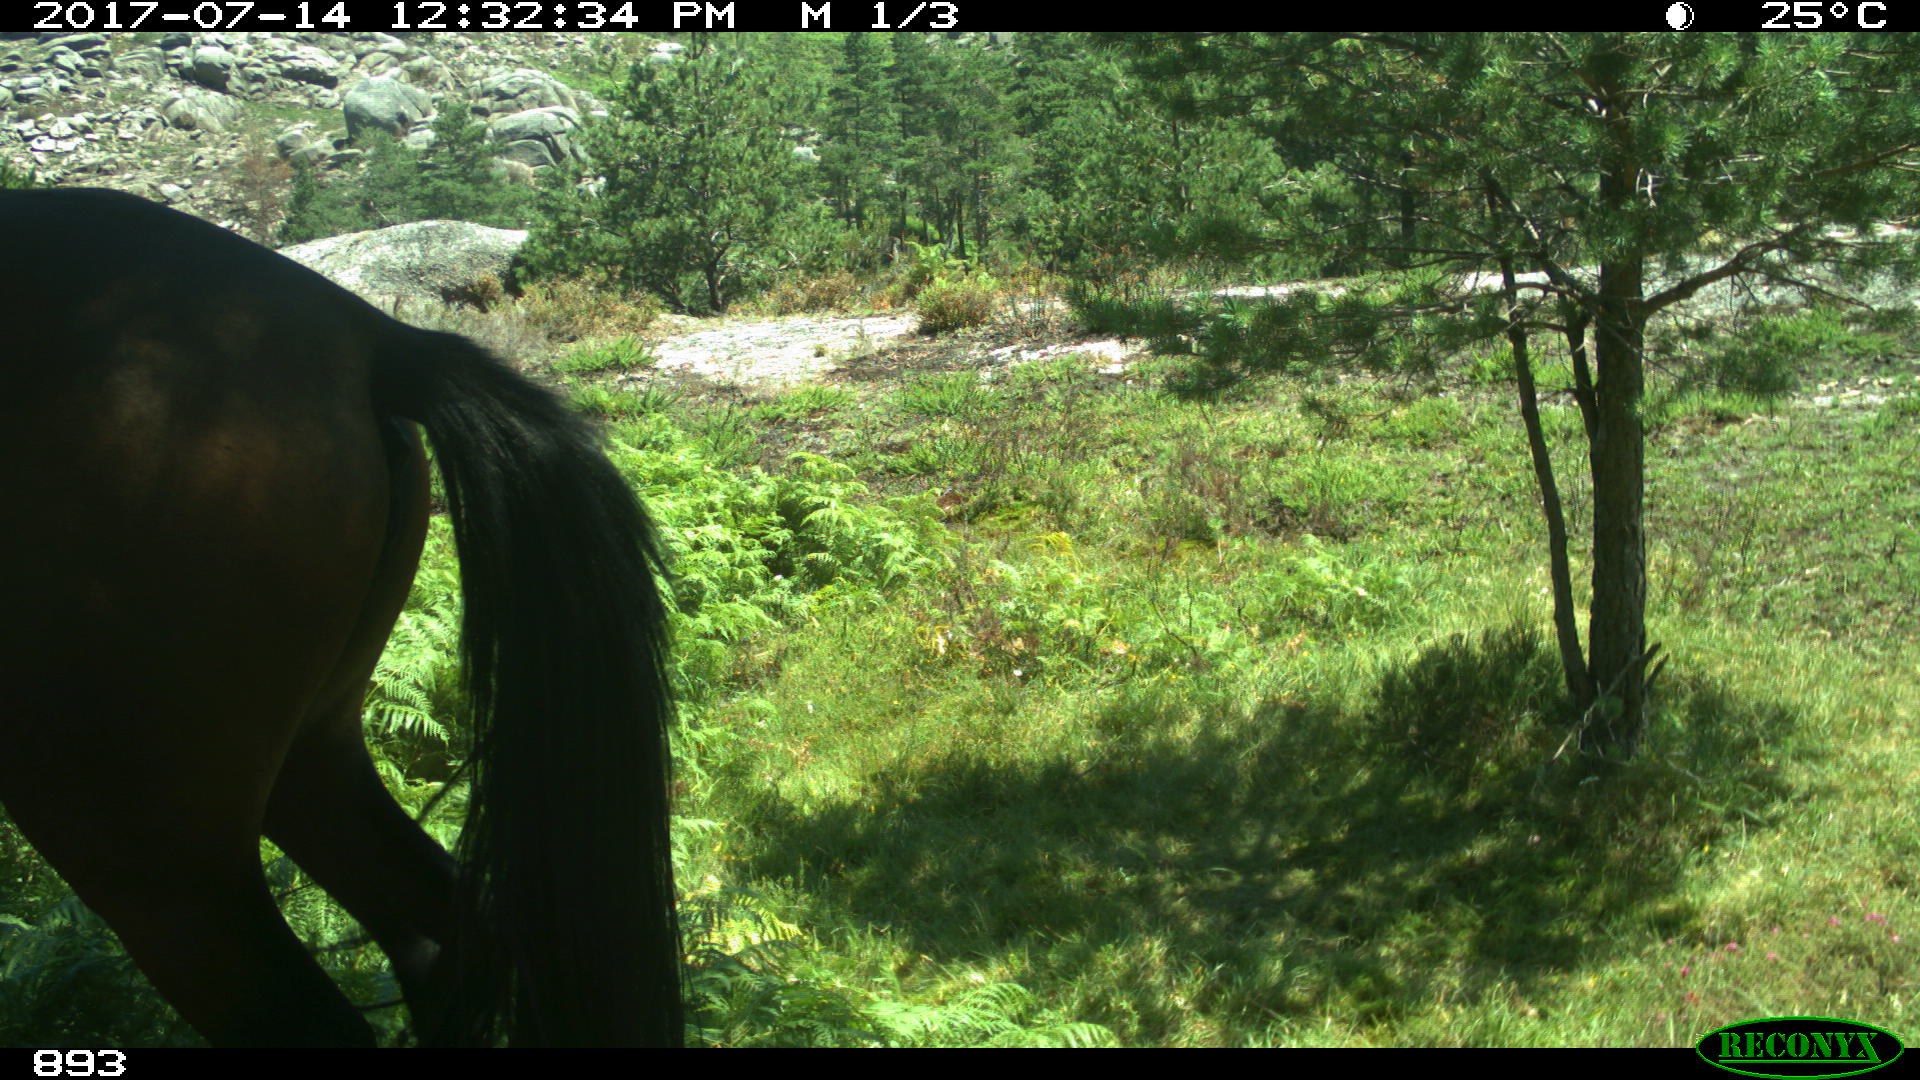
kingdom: Animalia
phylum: Chordata
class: Mammalia
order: Perissodactyla
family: Equidae
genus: Equus
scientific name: Equus caballus
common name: Horse
